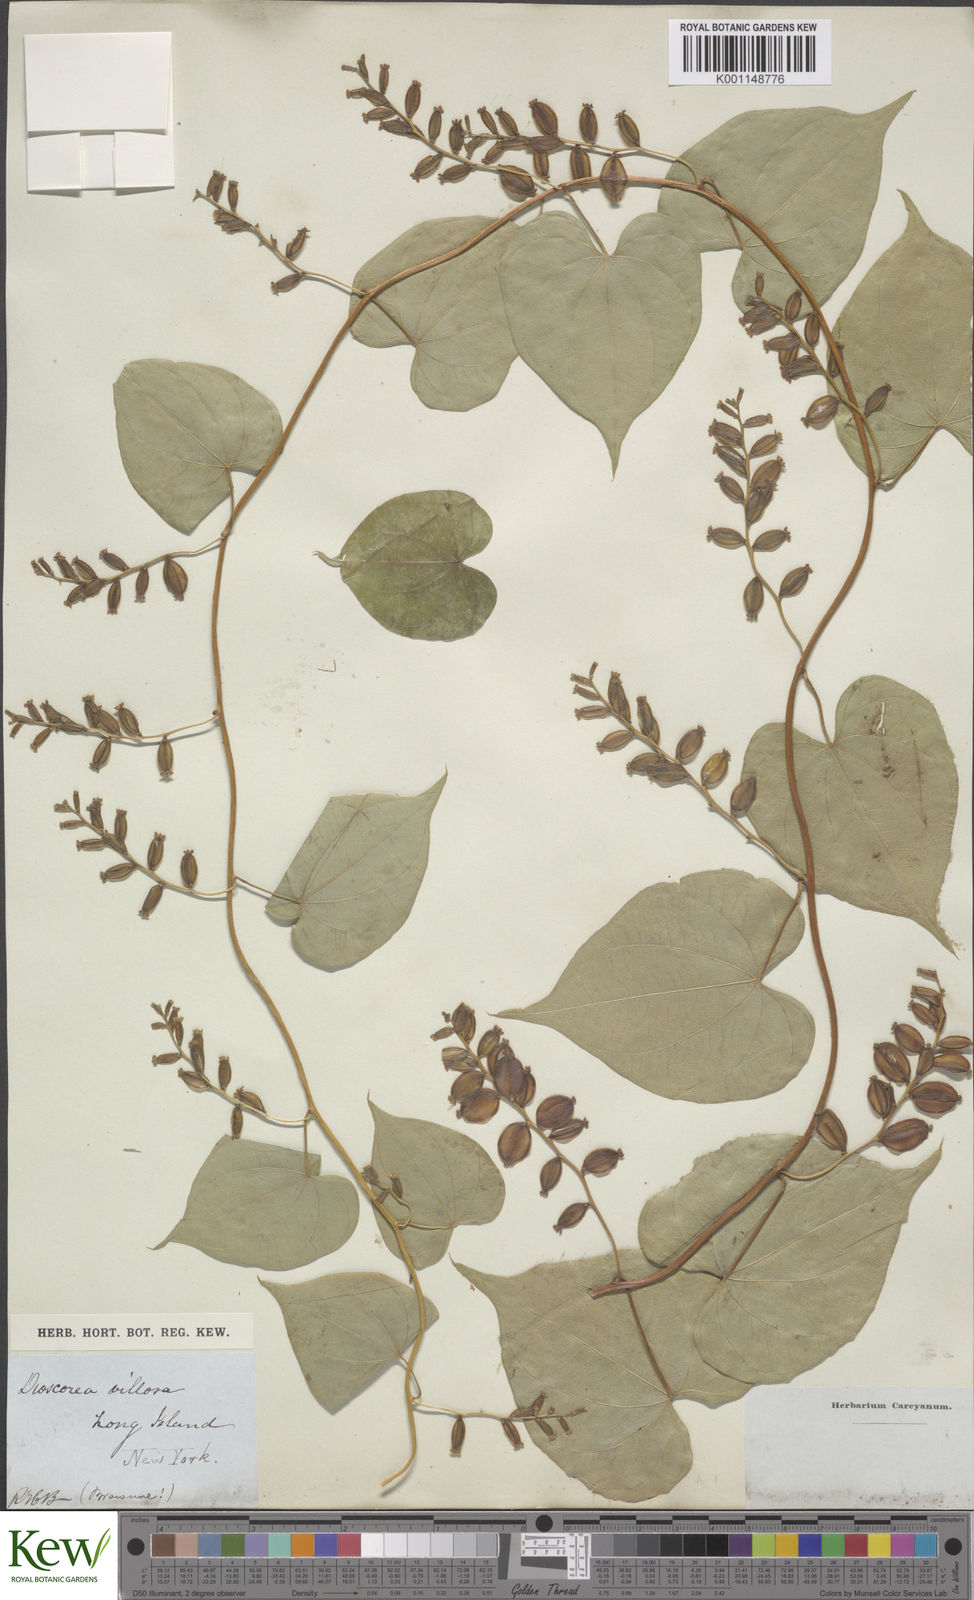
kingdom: Plantae
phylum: Tracheophyta
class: Liliopsida
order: Dioscoreales
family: Dioscoreaceae
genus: Dioscorea
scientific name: Dioscorea villosa
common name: Wild yam
